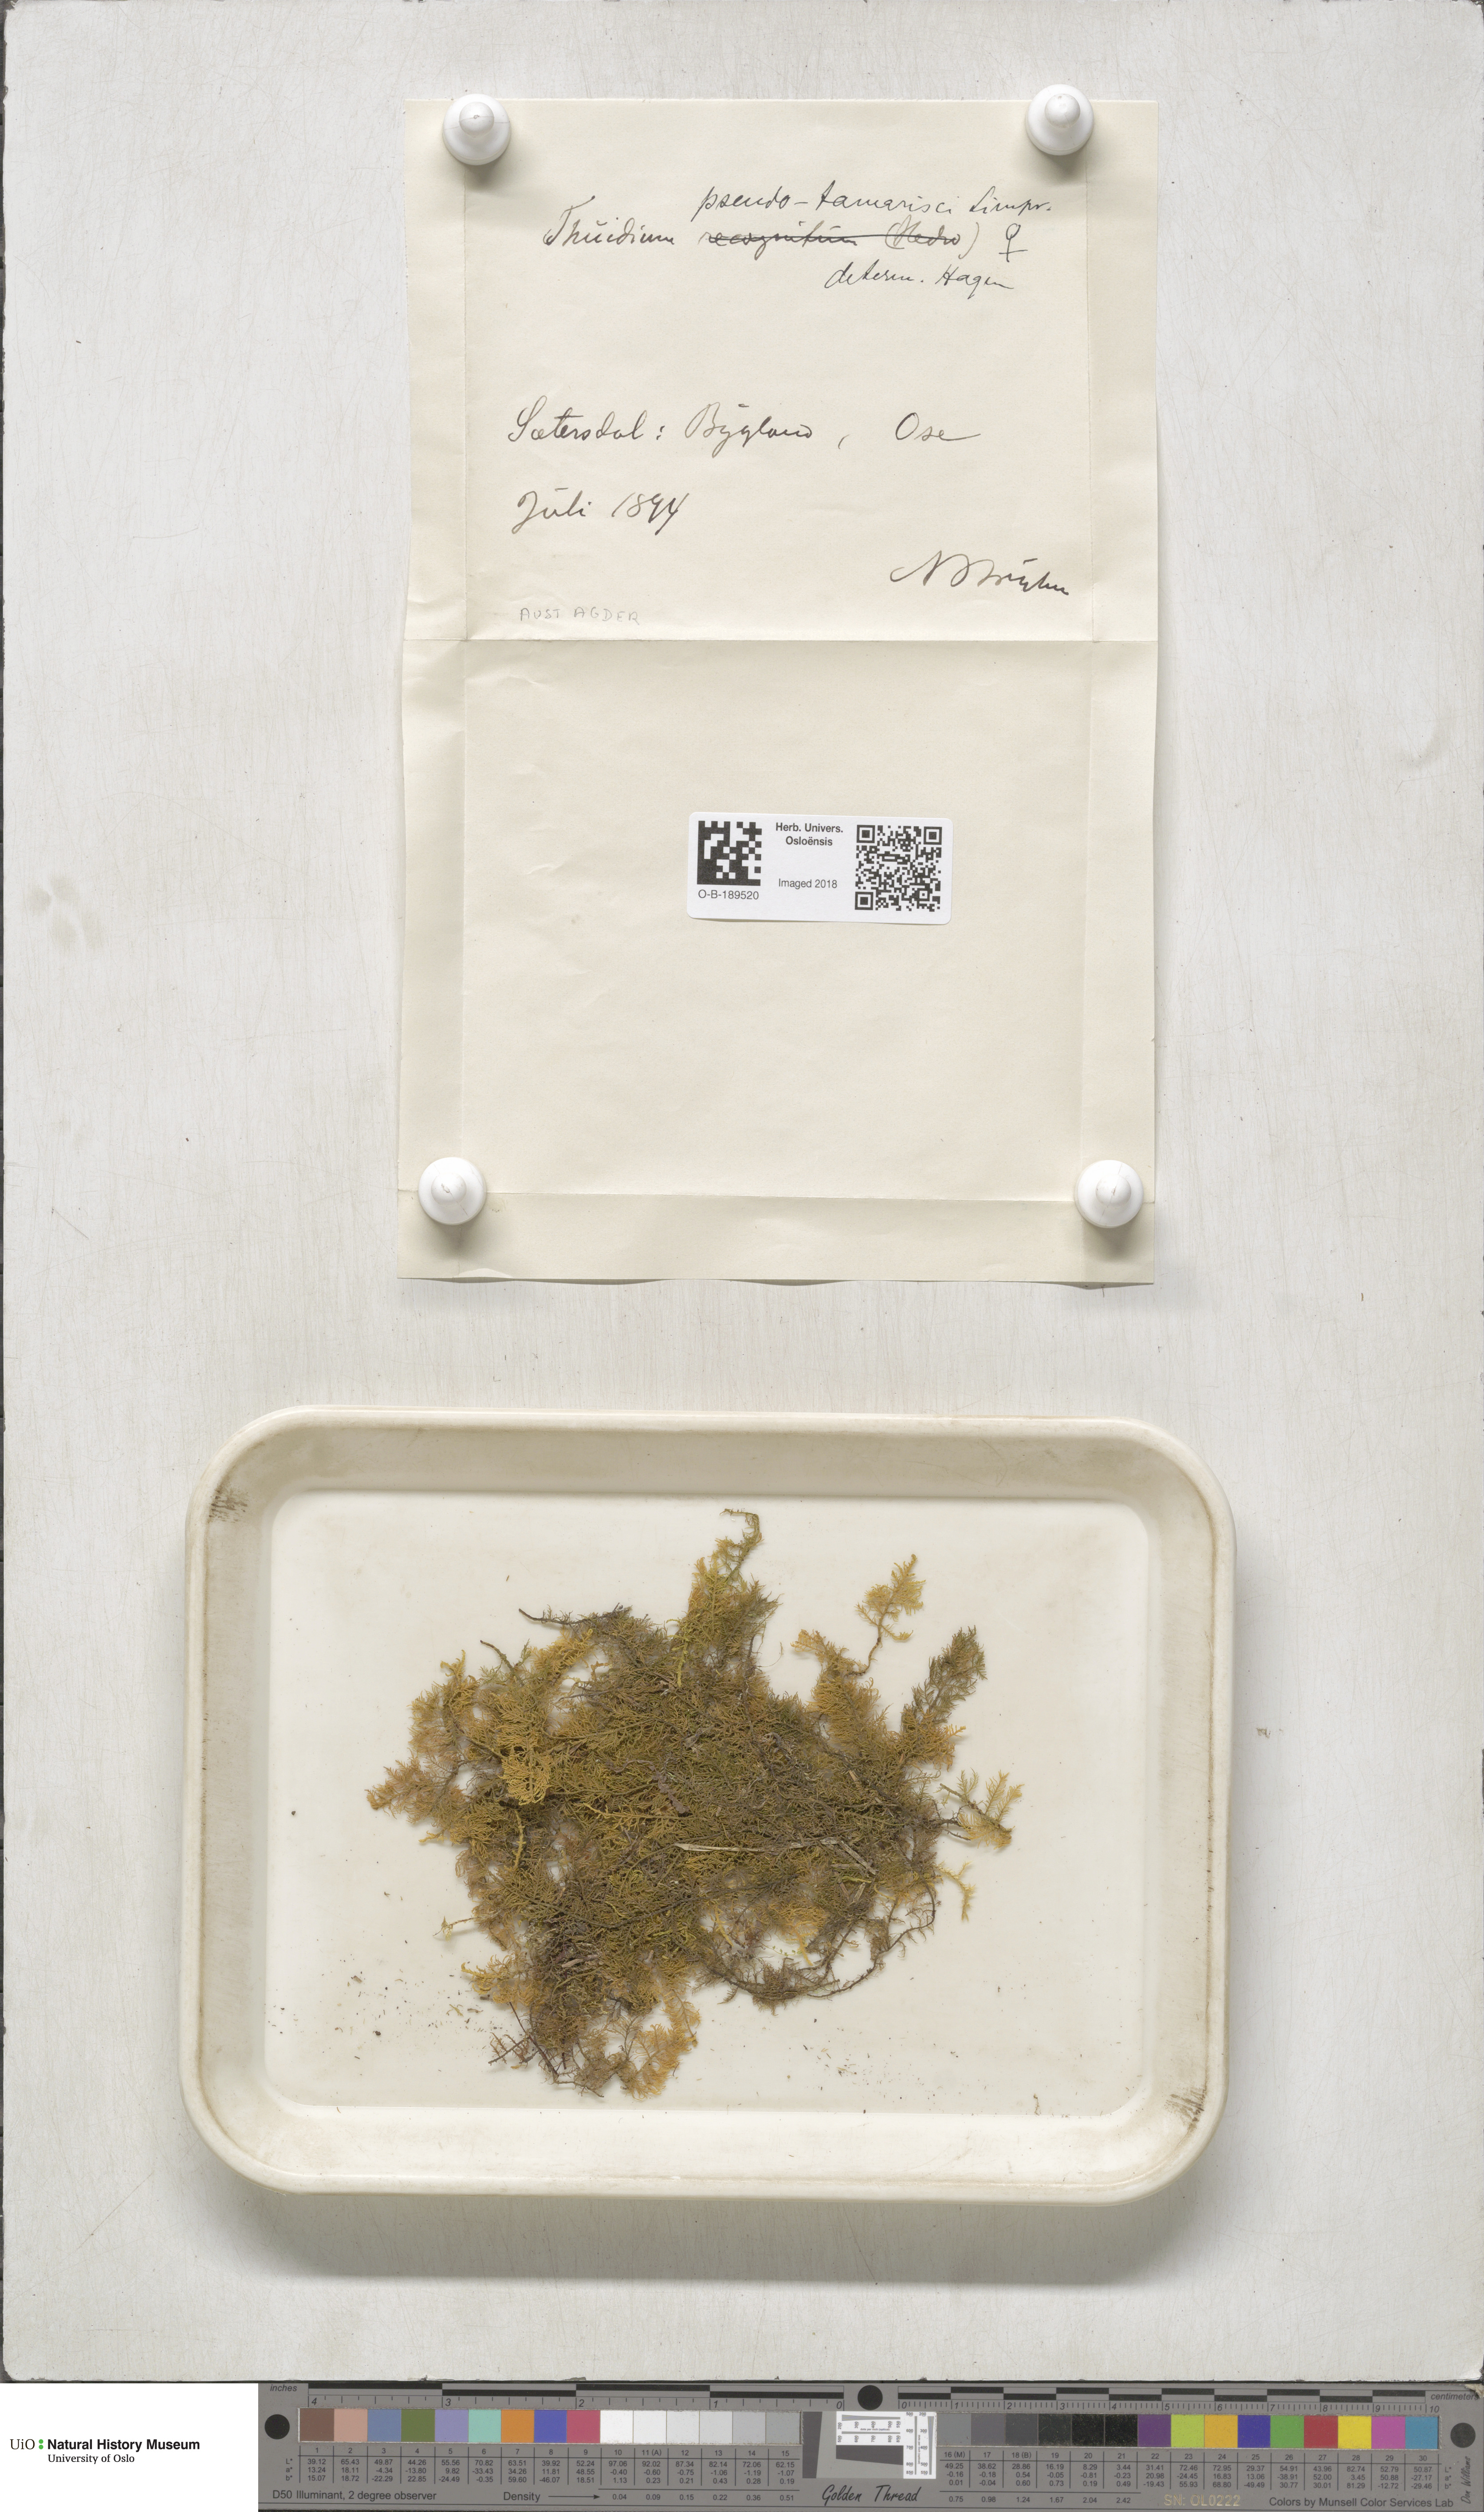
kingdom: Plantae
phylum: Bryophyta
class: Bryopsida
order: Hypnales
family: Thuidiaceae
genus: Thuidium
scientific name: Thuidium assimile
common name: Philibert's fern moss
